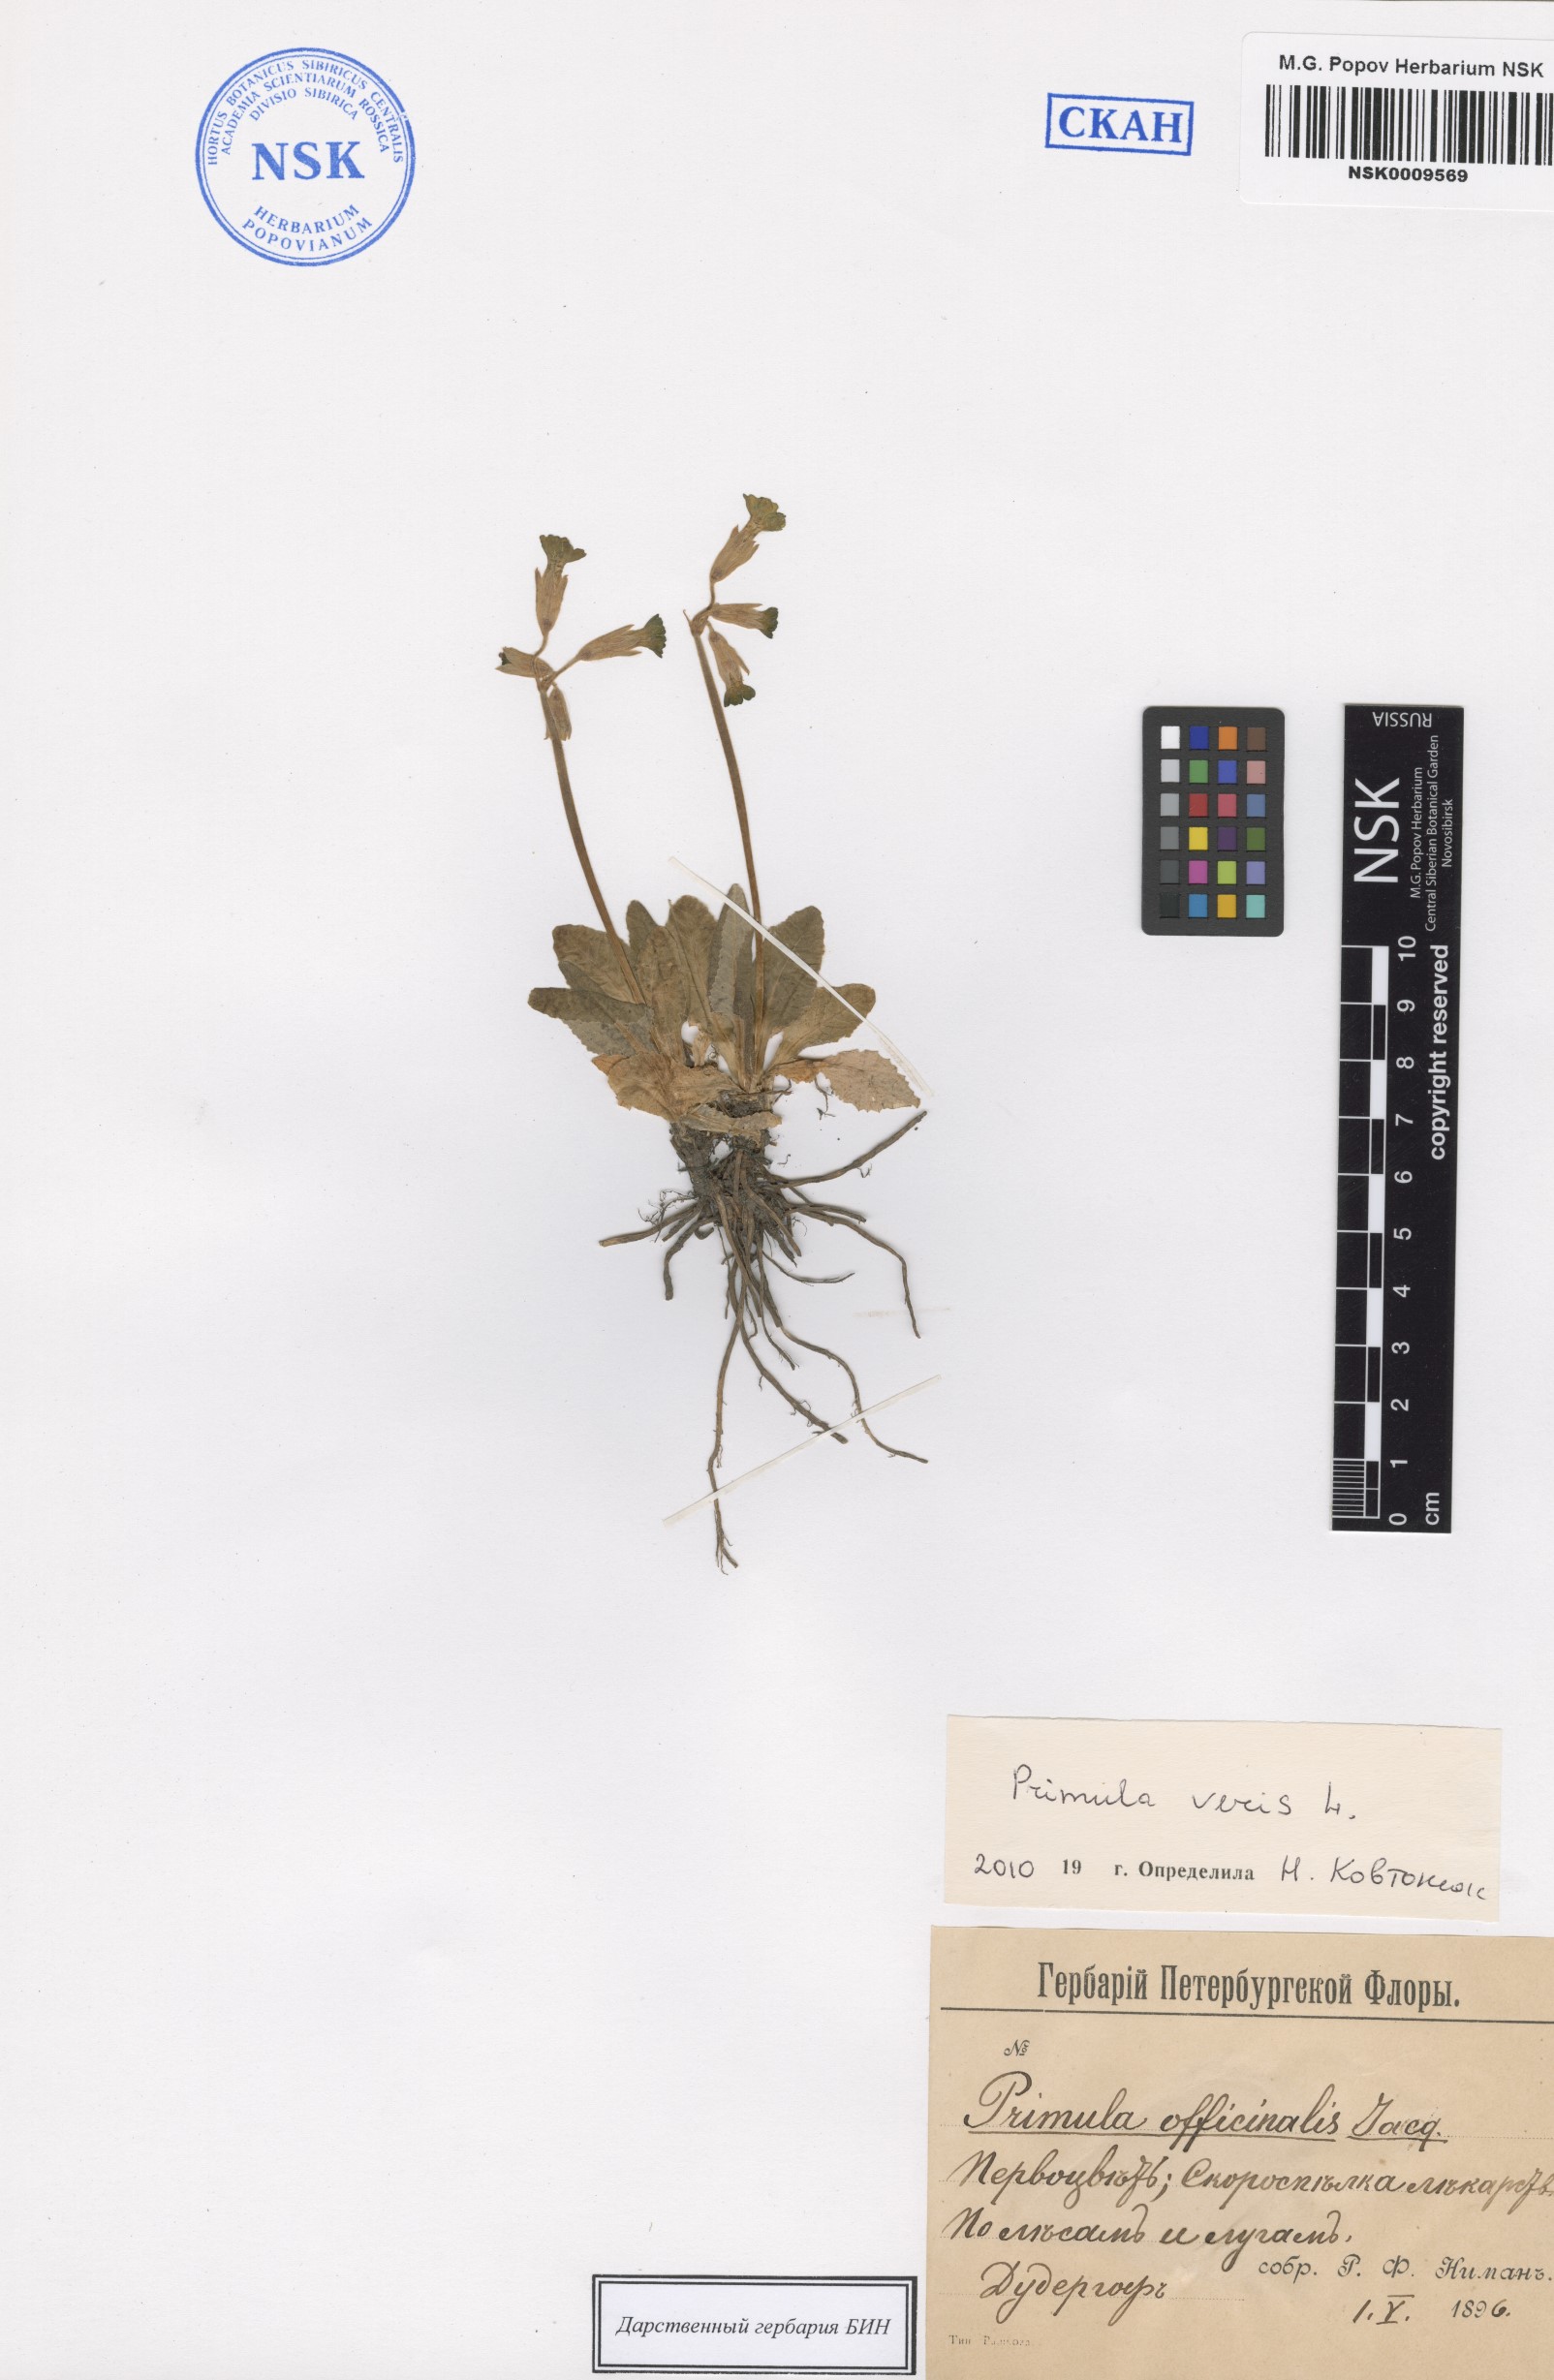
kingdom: Plantae
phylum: Tracheophyta
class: Magnoliopsida
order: Ericales
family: Primulaceae
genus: Primula
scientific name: Primula veris
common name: Cowslip
